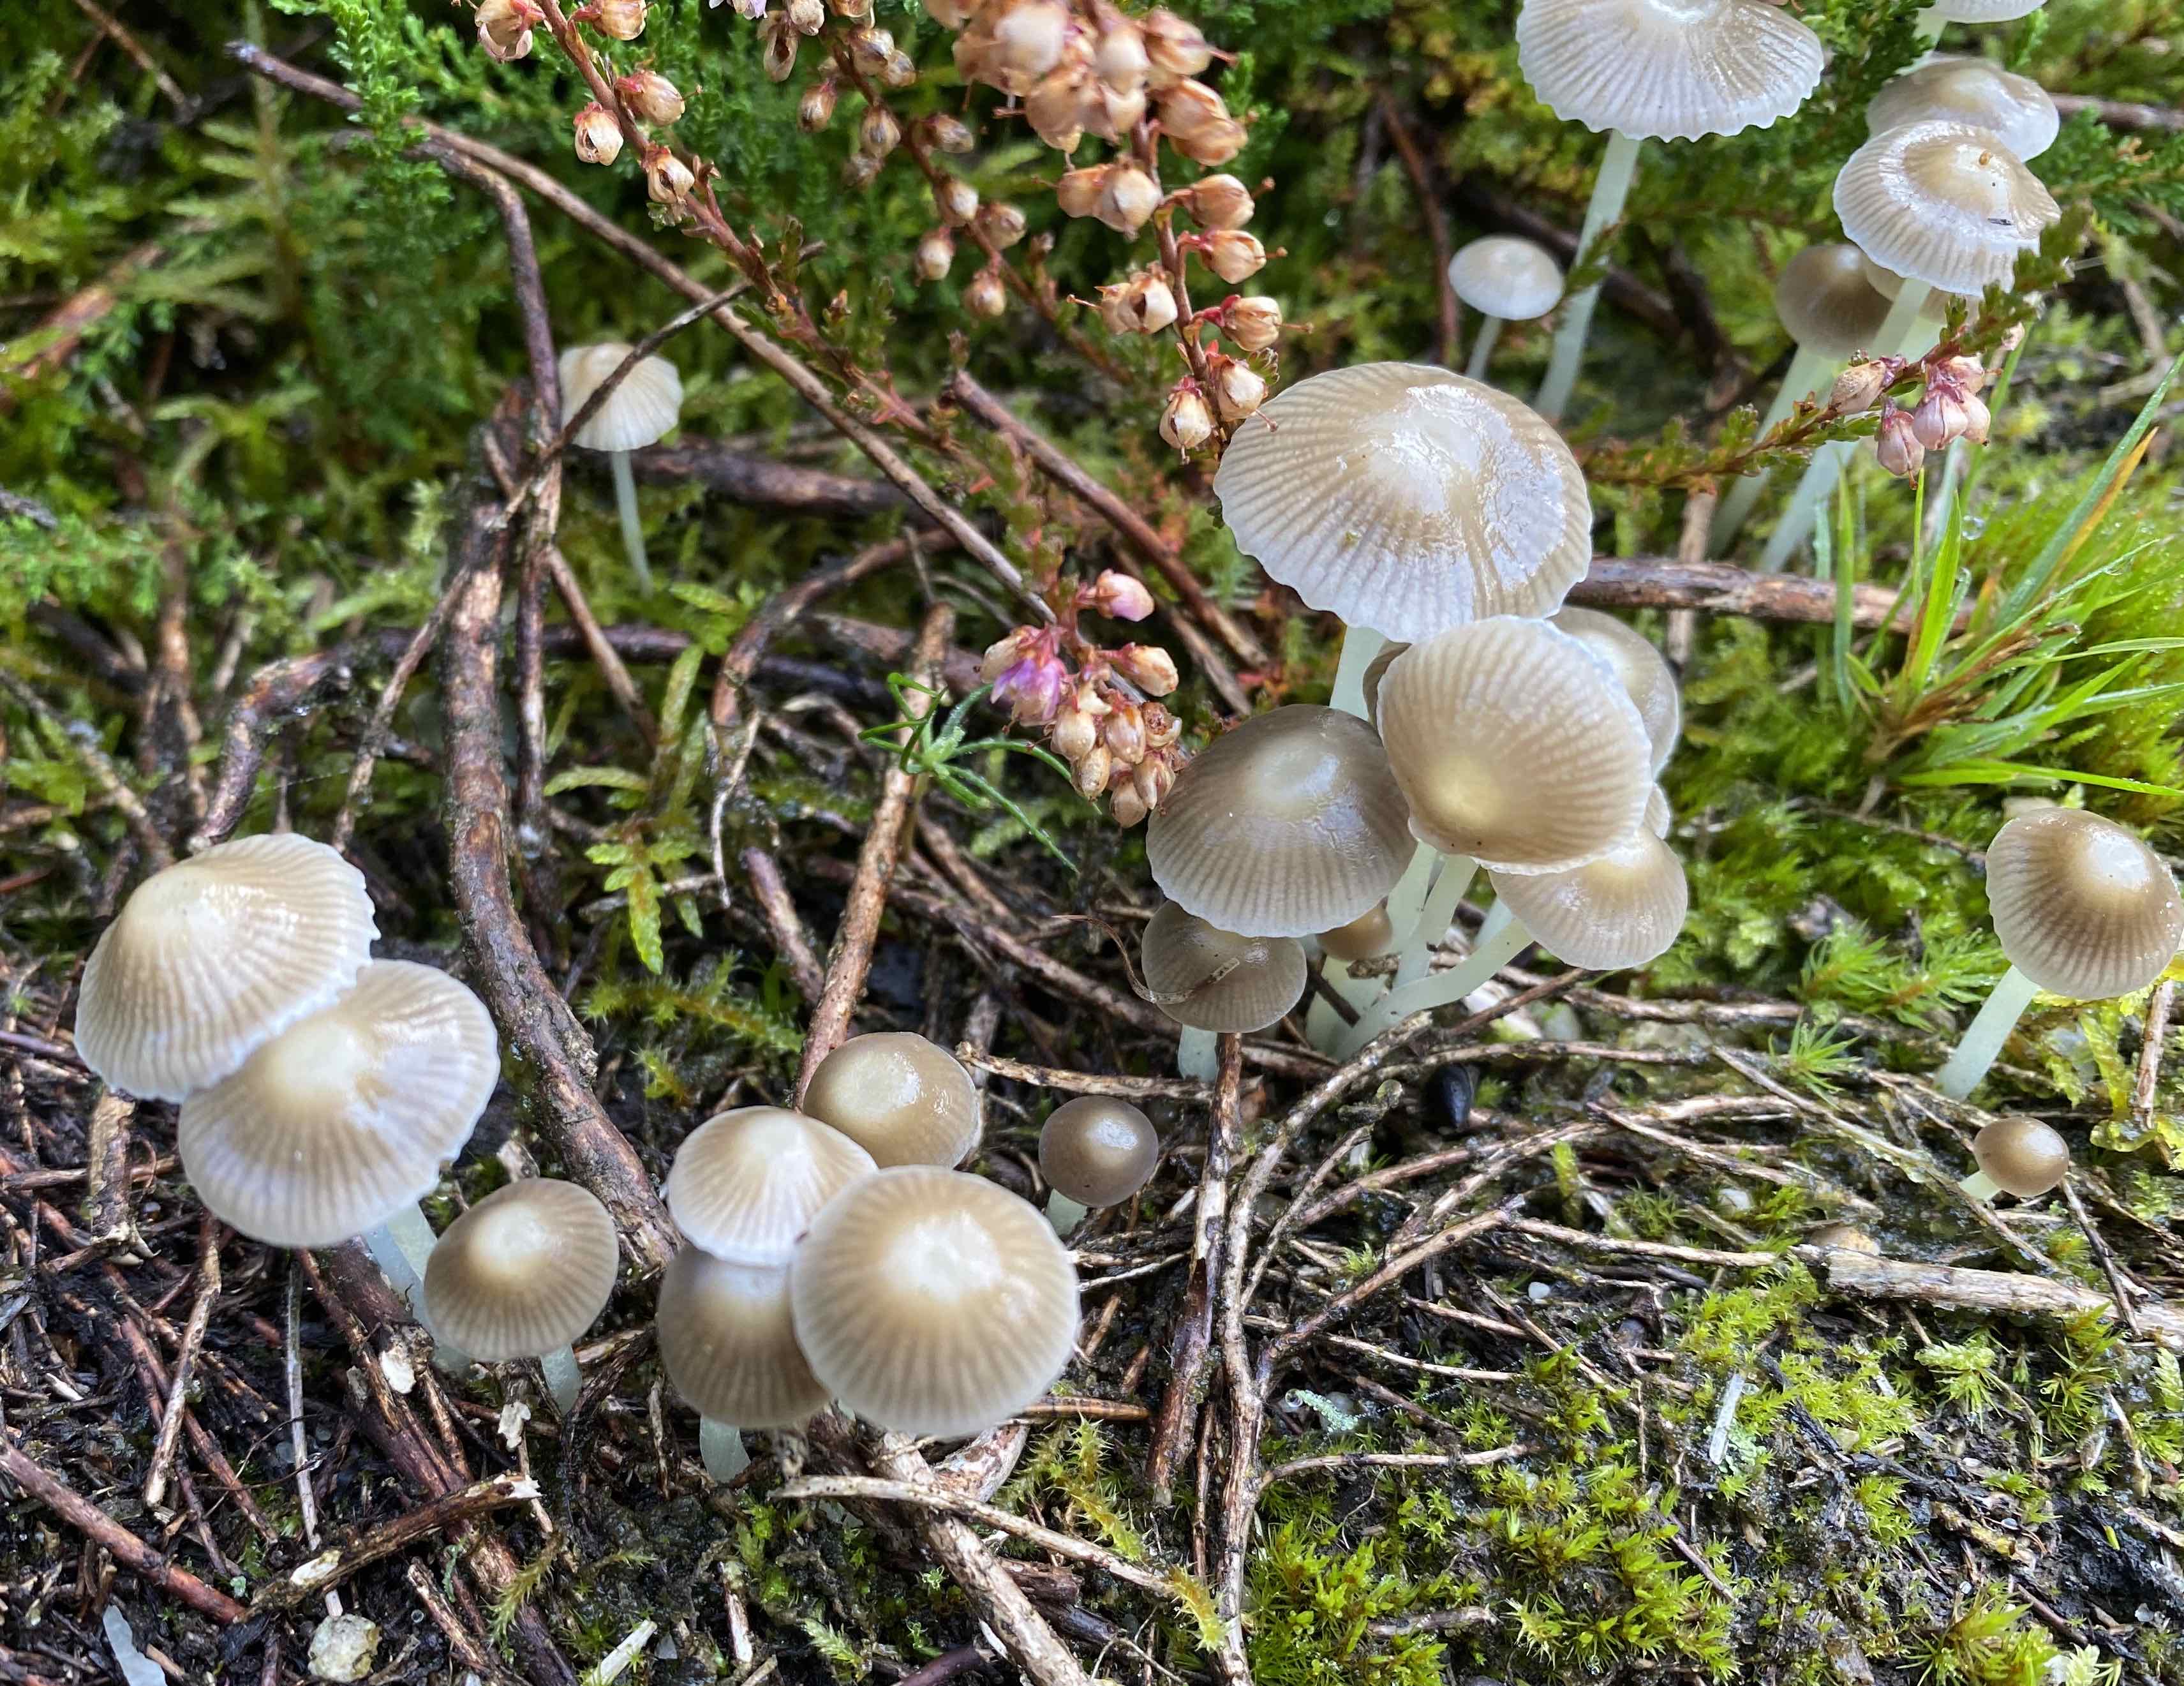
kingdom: Fungi
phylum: Basidiomycota
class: Agaricomycetes
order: Agaricales
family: Mycenaceae
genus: Mycena
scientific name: Mycena epipterygia
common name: gulstokket huesvamp
